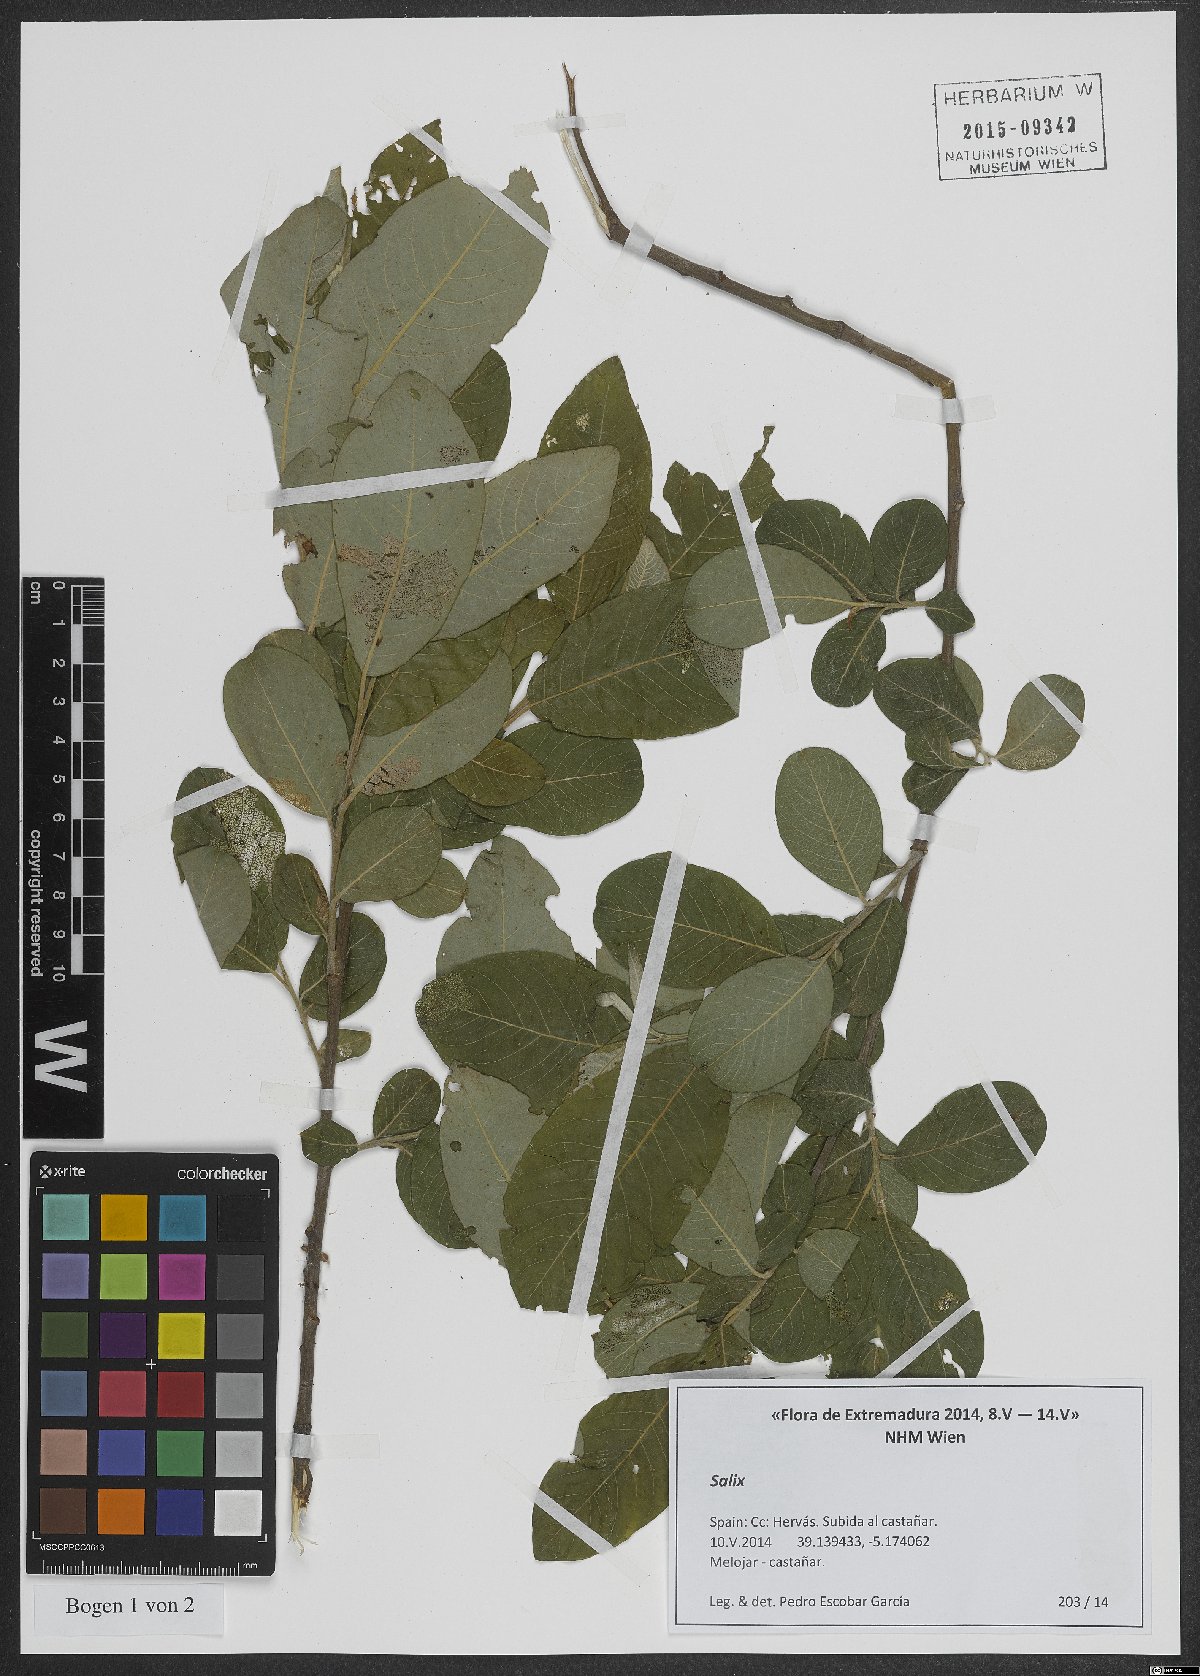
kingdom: Plantae
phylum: Tracheophyta
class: Magnoliopsida
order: Malpighiales
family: Salicaceae
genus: Salix
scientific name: Salix
